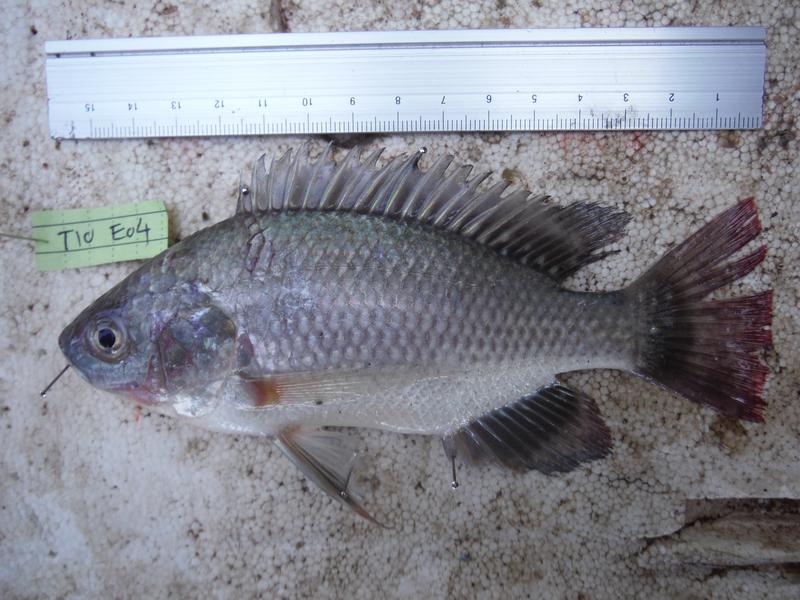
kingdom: Animalia
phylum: Chordata
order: Perciformes
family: Cichlidae
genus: Oreochromis
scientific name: Oreochromis esculentus
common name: Carp
